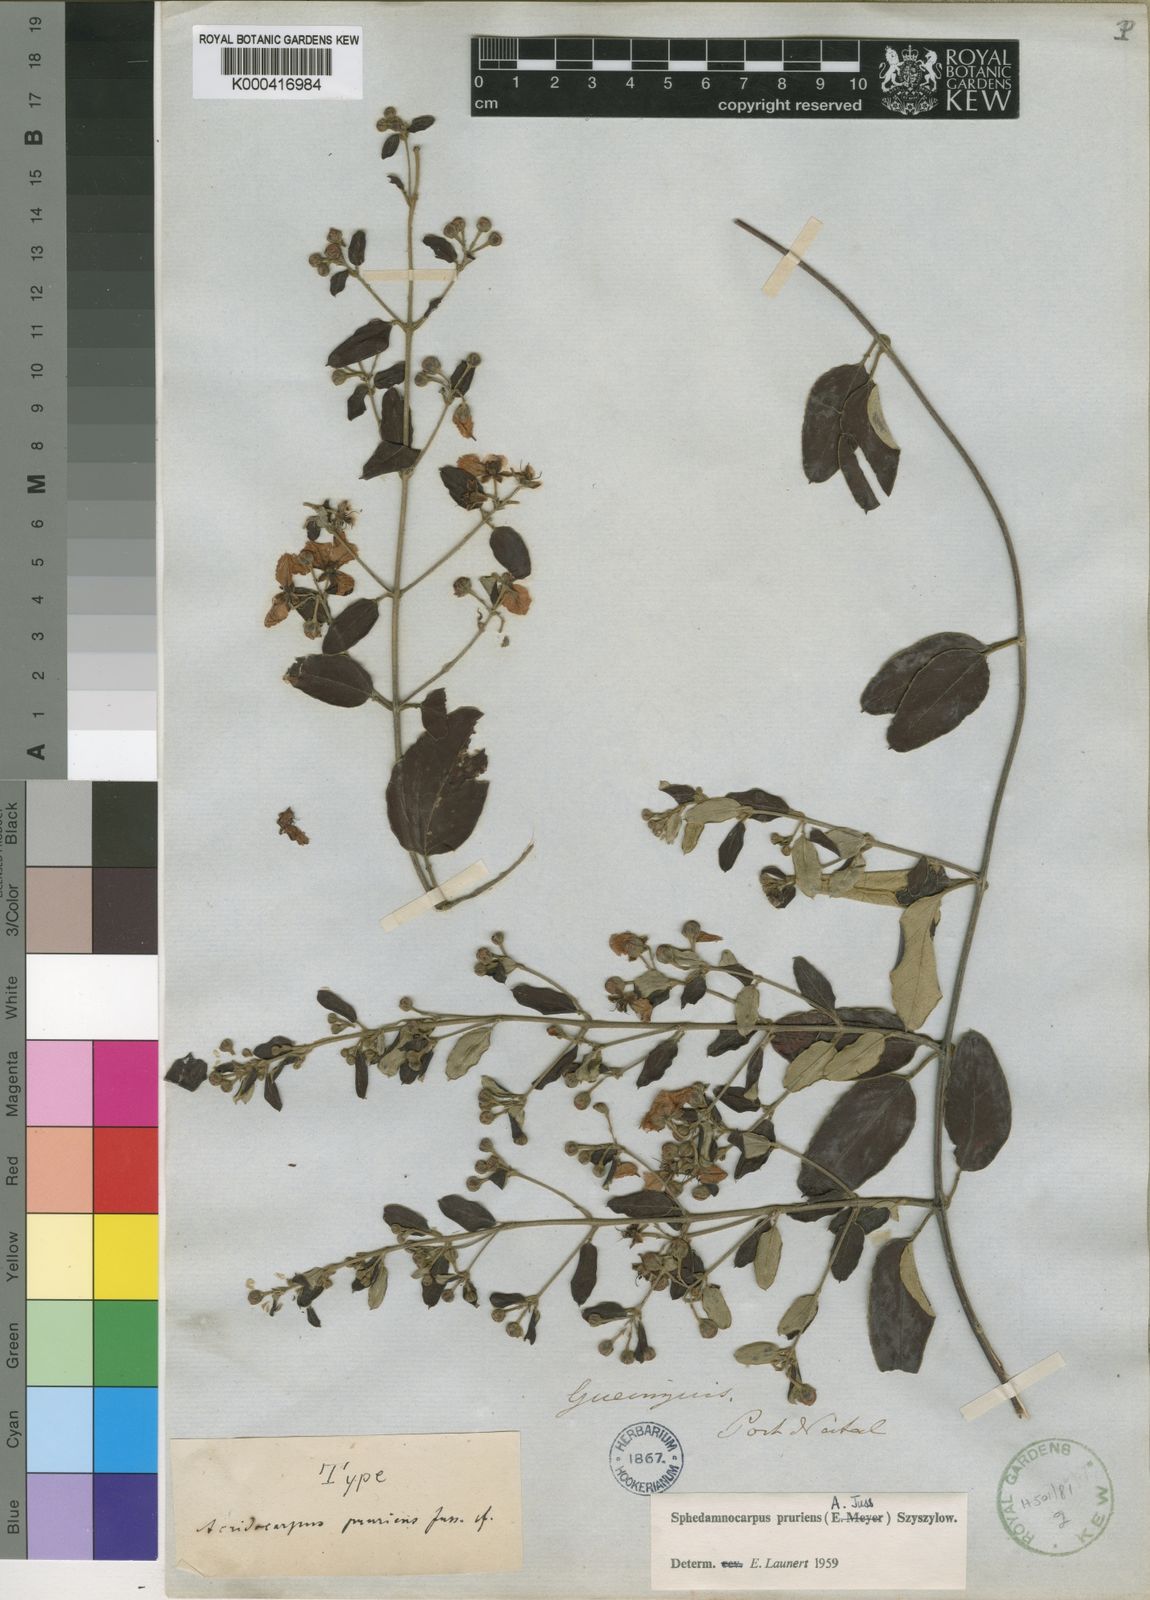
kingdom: Plantae
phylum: Tracheophyta
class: Magnoliopsida
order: Malpighiales
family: Malpighiaceae
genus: Sphedamnocarpus
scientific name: Sphedamnocarpus pruriens
